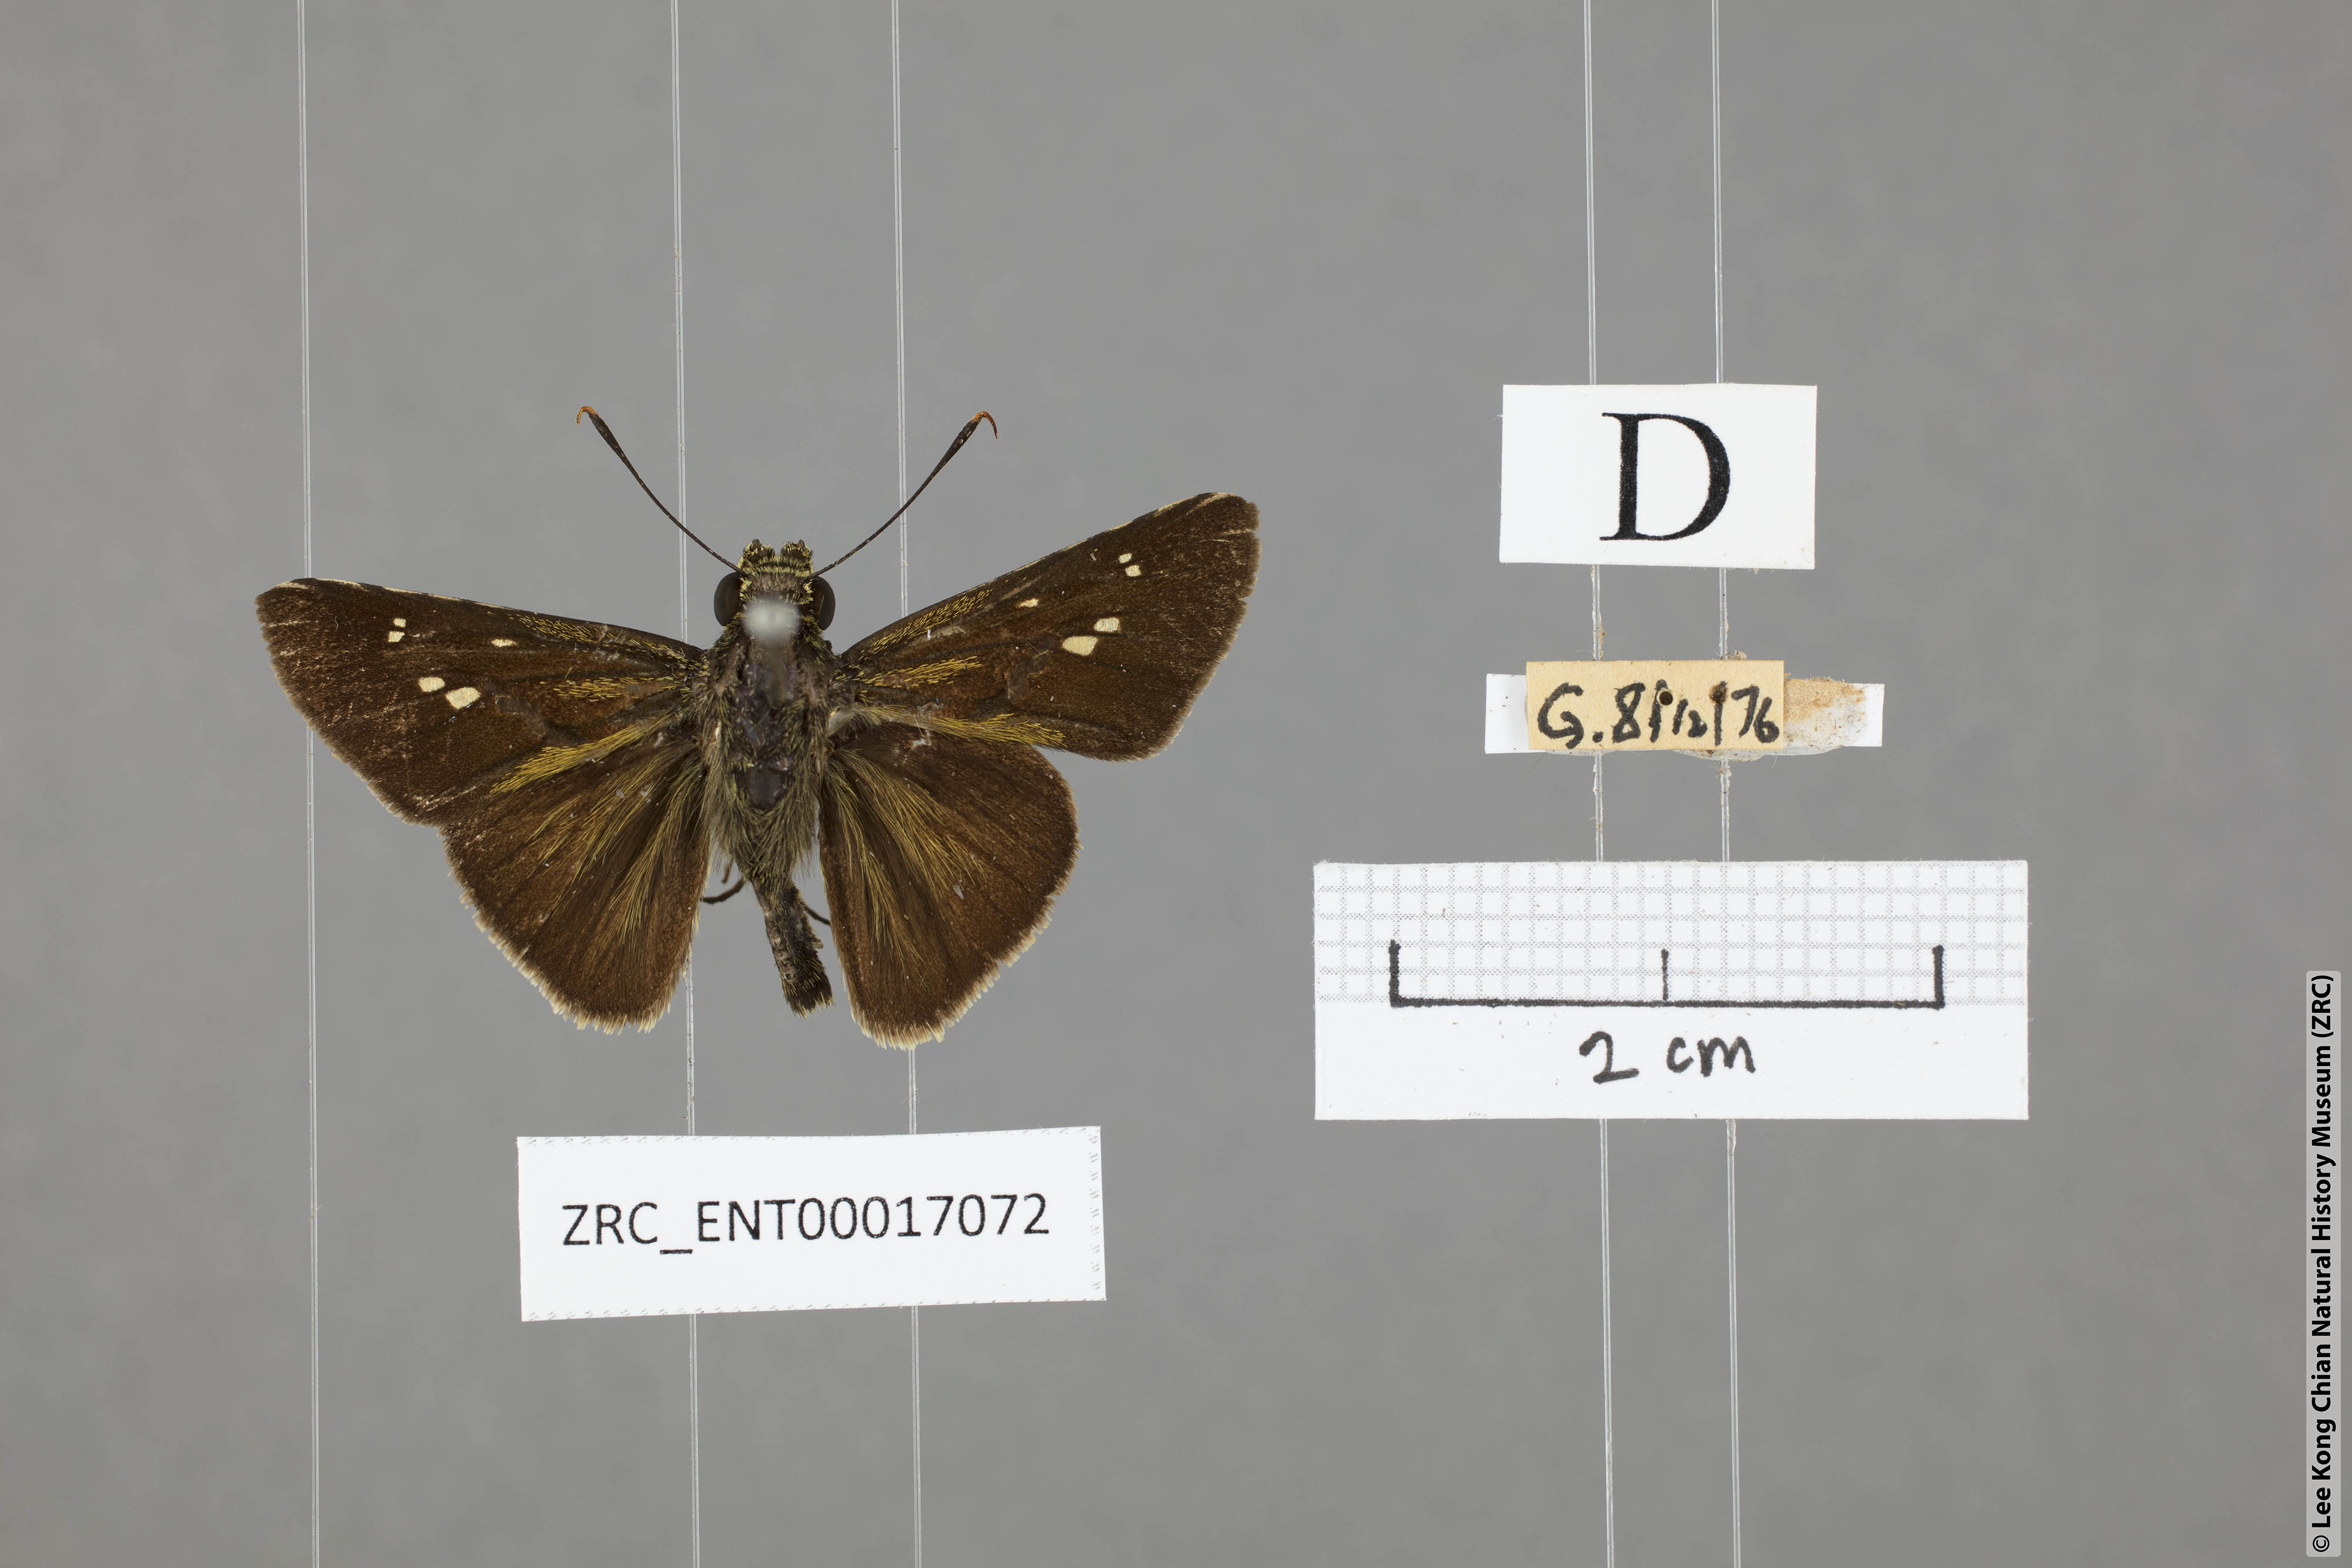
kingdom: Animalia
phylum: Arthropoda
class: Insecta
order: Lepidoptera
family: Hesperiidae
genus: Halpe
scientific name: Halpe sikkima
